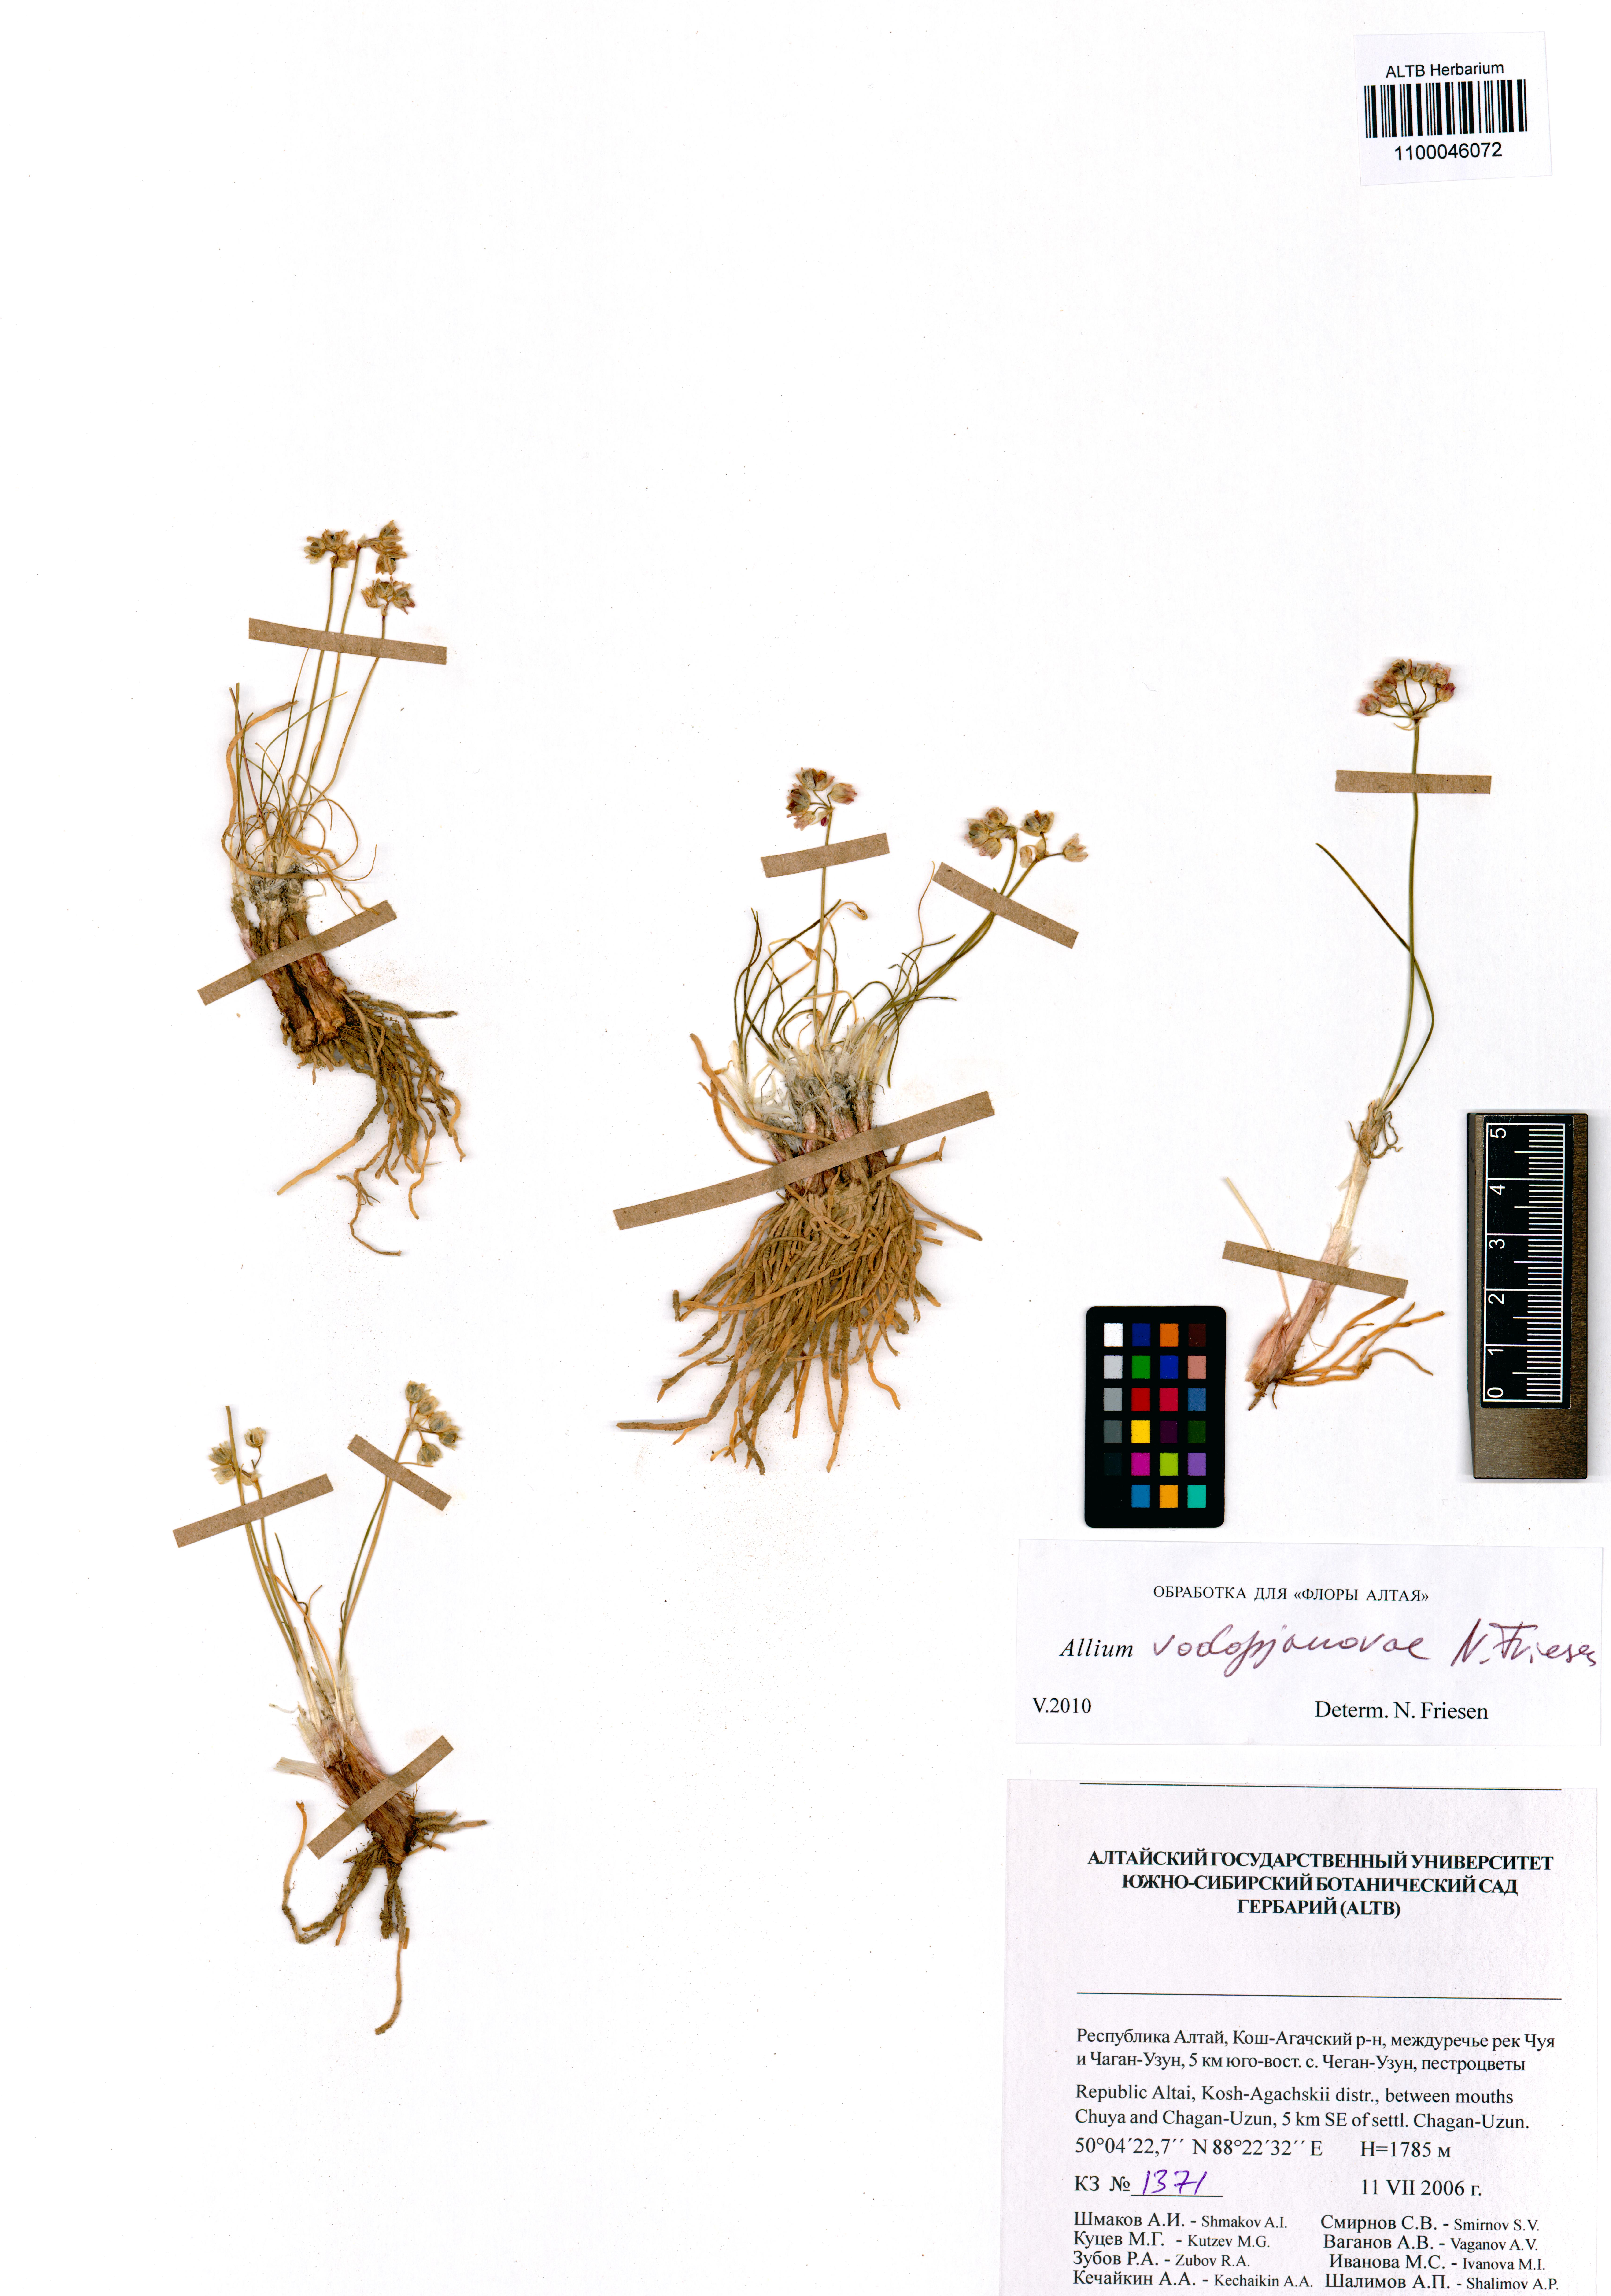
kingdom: Plantae
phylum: Tracheophyta
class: Liliopsida
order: Asparagales
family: Amaryllidaceae
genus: Allium
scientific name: Allium vodopjanovae
